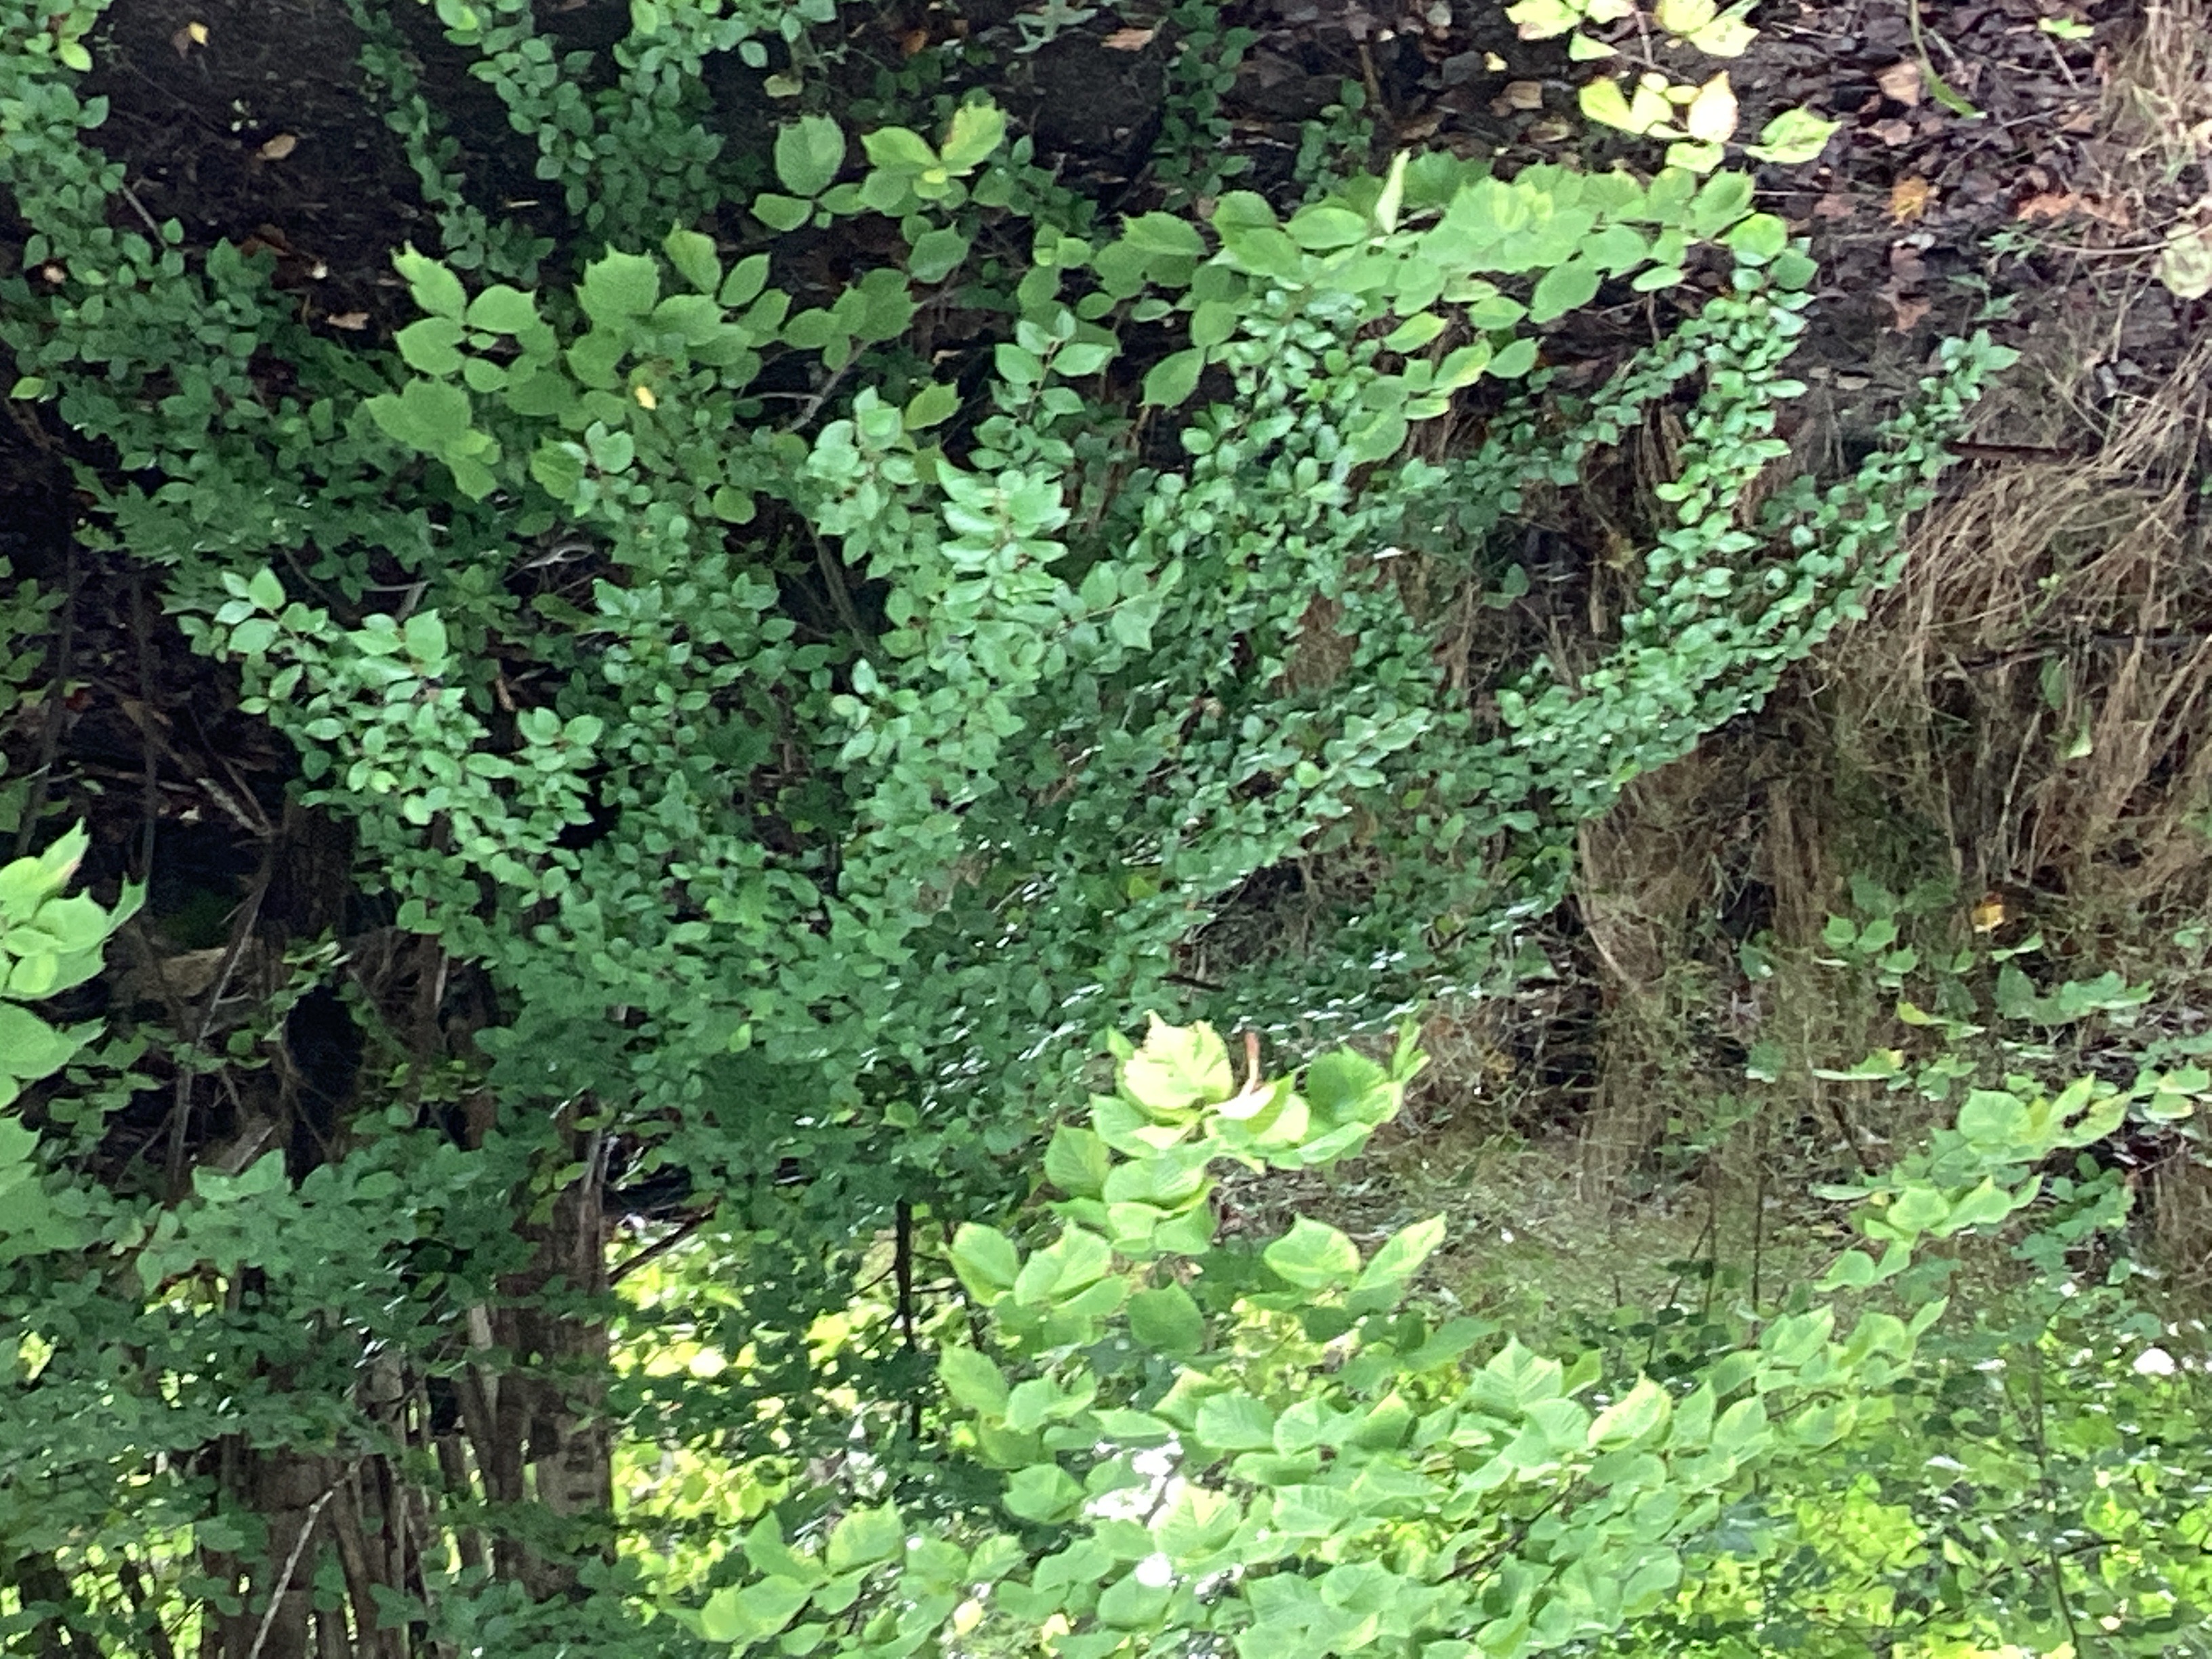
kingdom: Plantae
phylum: Tracheophyta
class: Magnoliopsida
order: Rosales
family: Rosaceae
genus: Cotoneaster
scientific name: Cotoneaster acutifolius
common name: blankmispel
